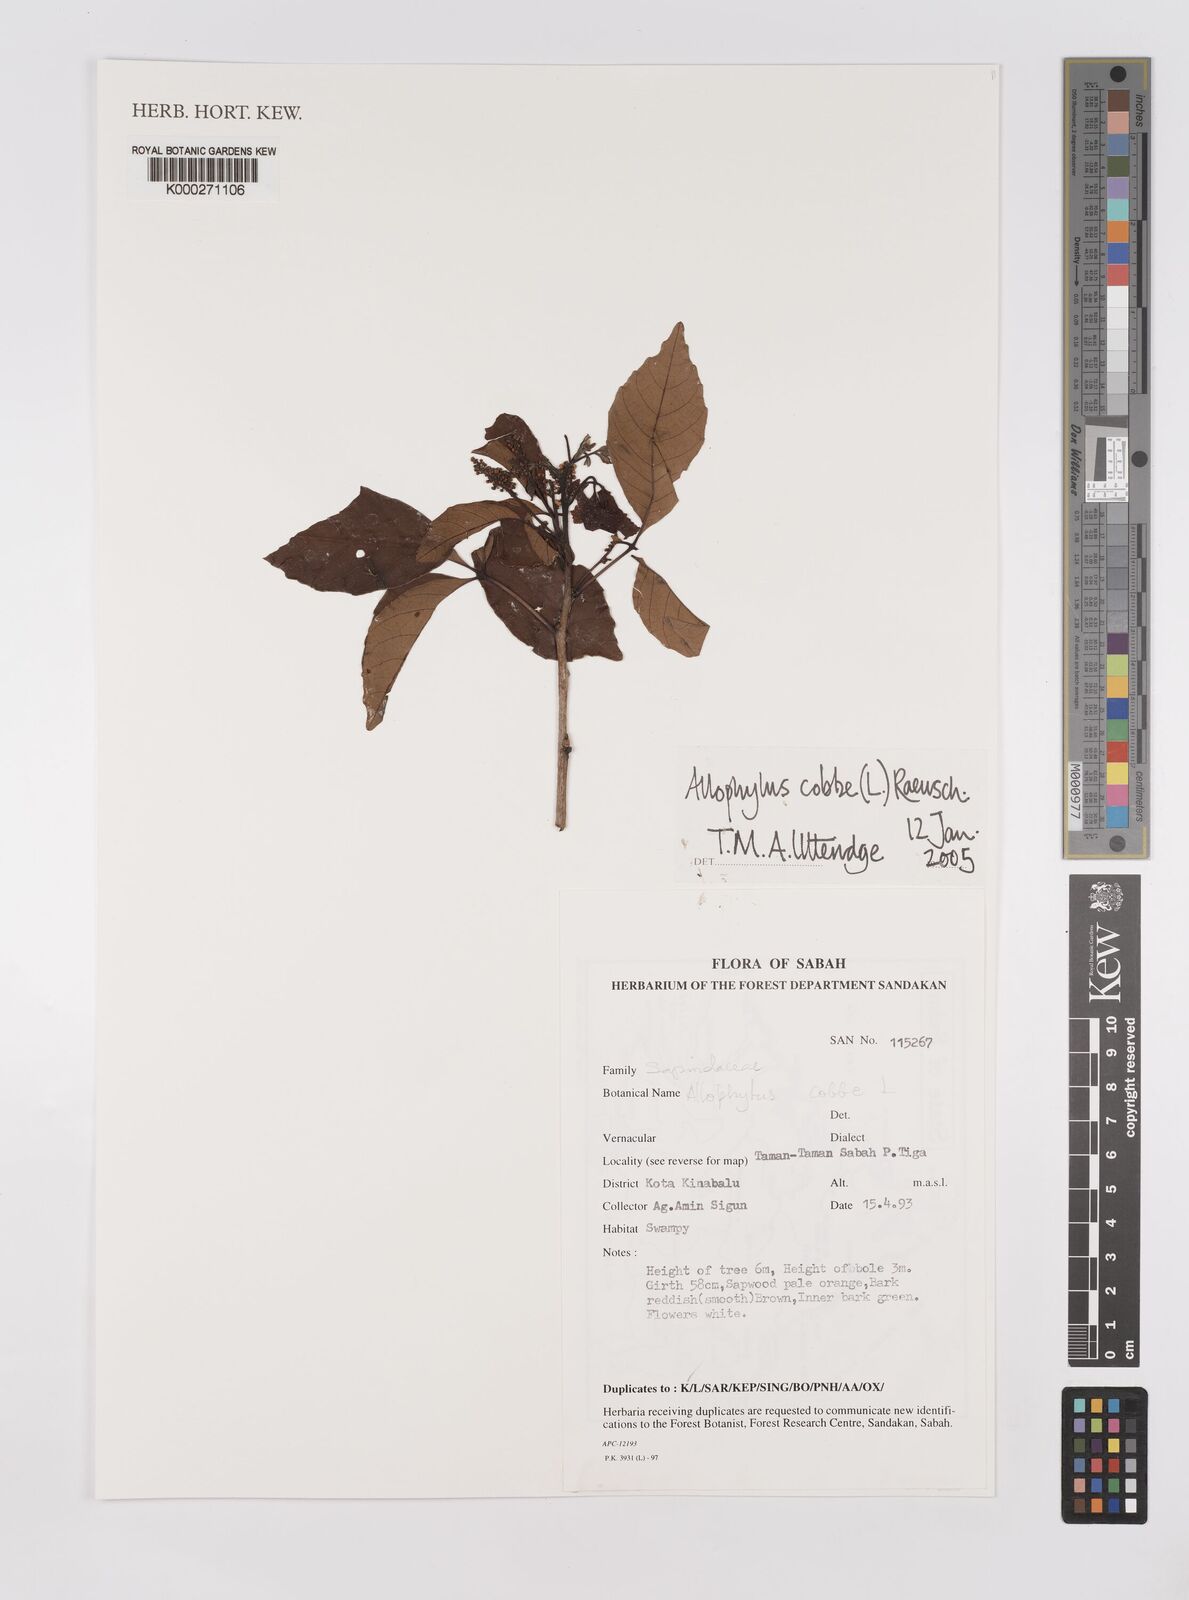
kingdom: Plantae
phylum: Tracheophyta
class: Magnoliopsida
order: Sapindales
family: Sapindaceae
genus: Allophylus
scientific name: Allophylus
